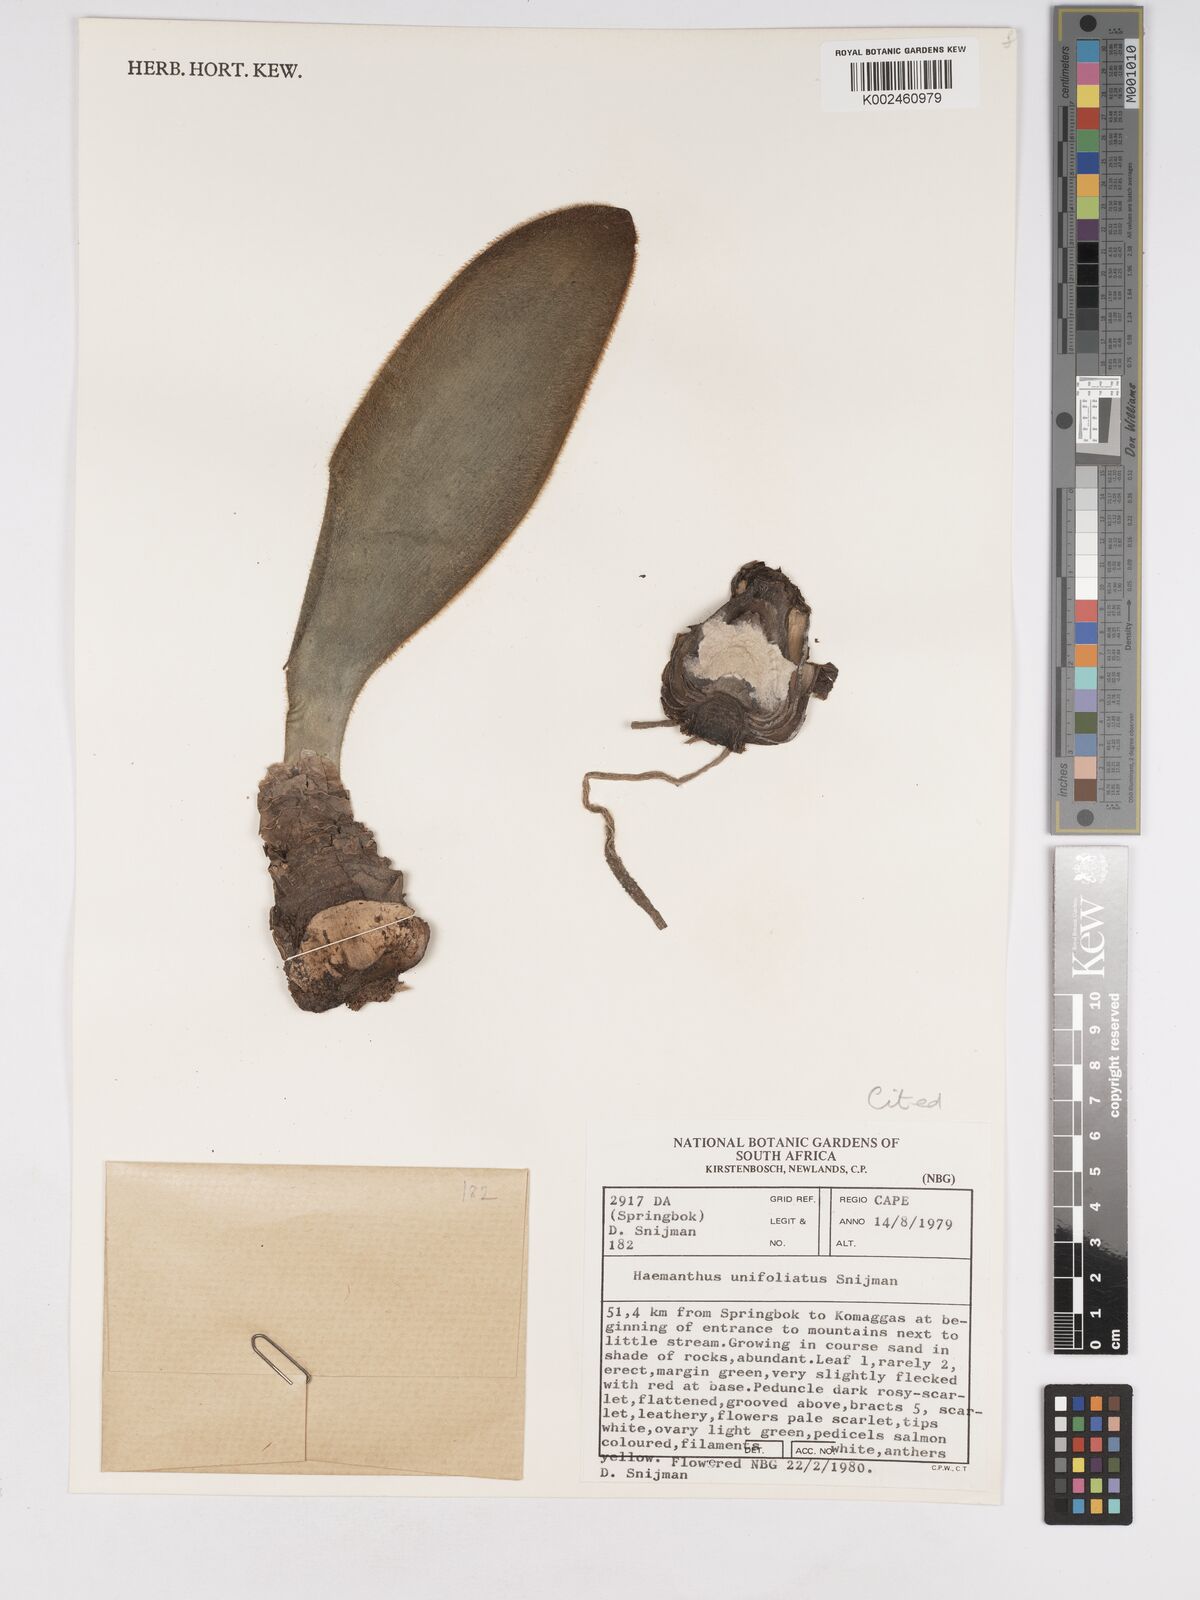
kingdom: Plantae
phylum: Tracheophyta
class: Liliopsida
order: Asparagales
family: Amaryllidaceae
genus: Haemanthus
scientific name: Haemanthus unifoliatus
